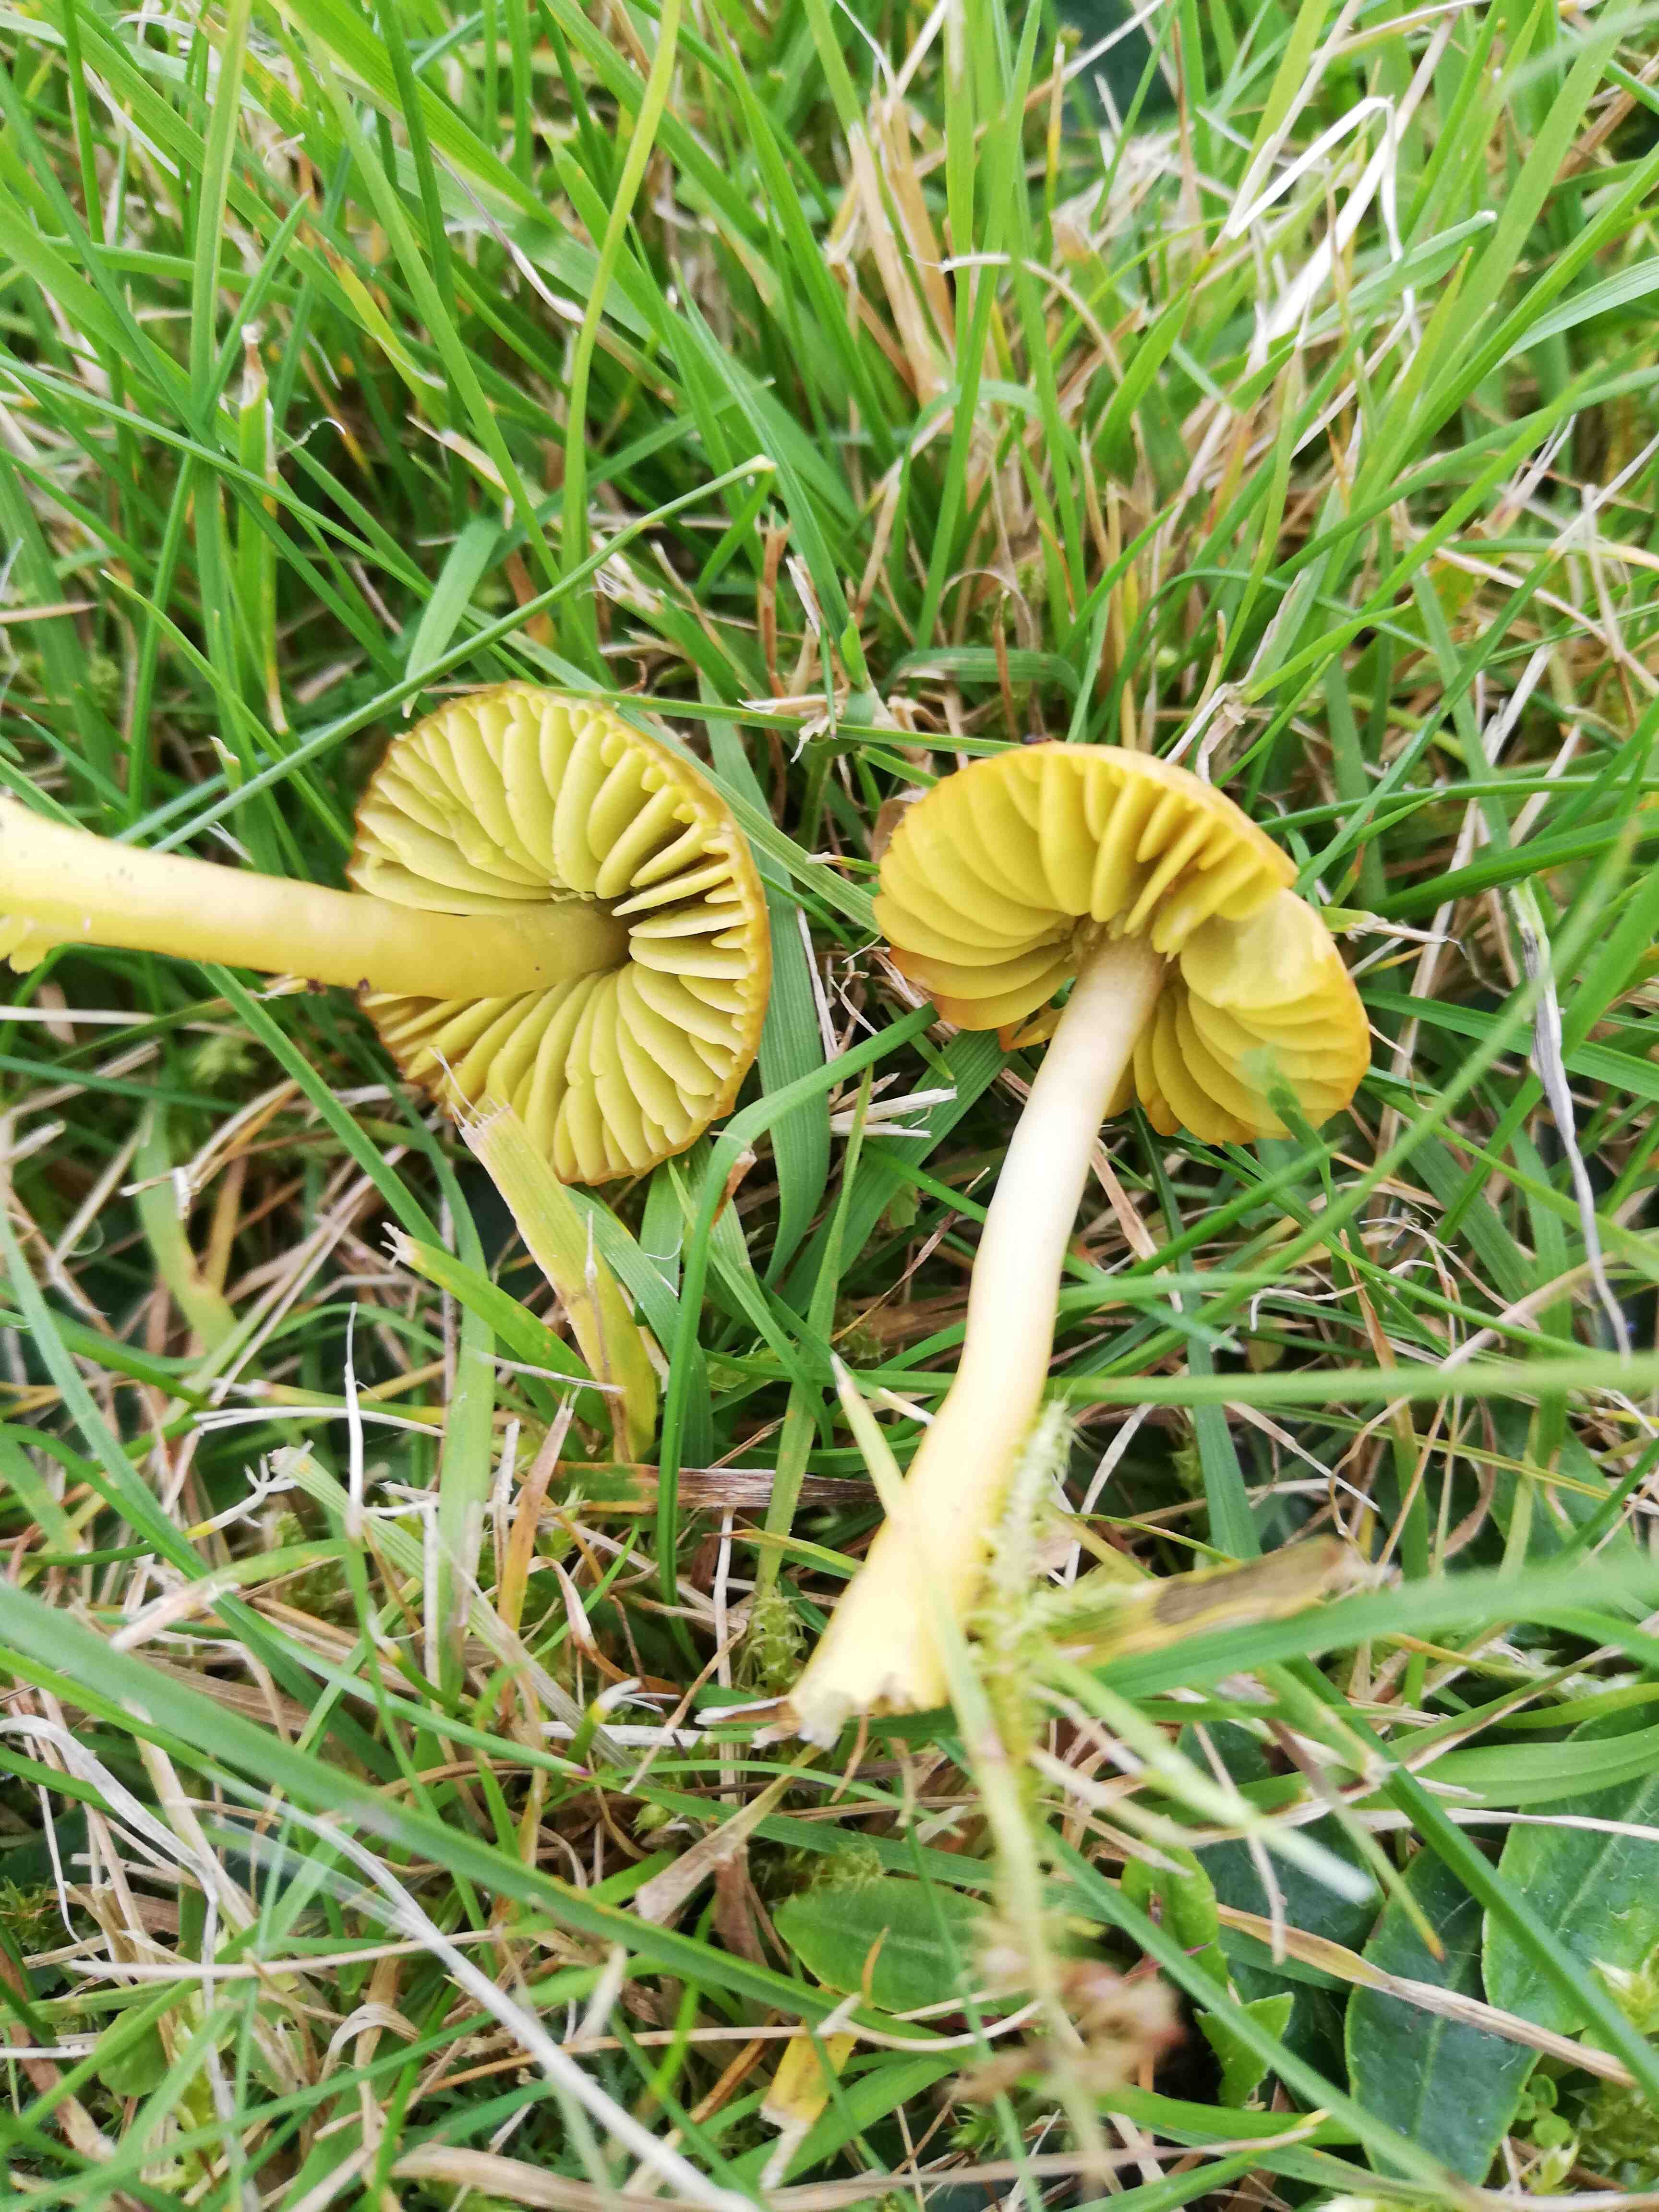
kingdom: Fungi
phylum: Basidiomycota
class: Agaricomycetes
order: Agaricales
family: Hygrophoraceae
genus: Gliophorus
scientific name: Gliophorus psittacinus
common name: papegøje-vokshat
